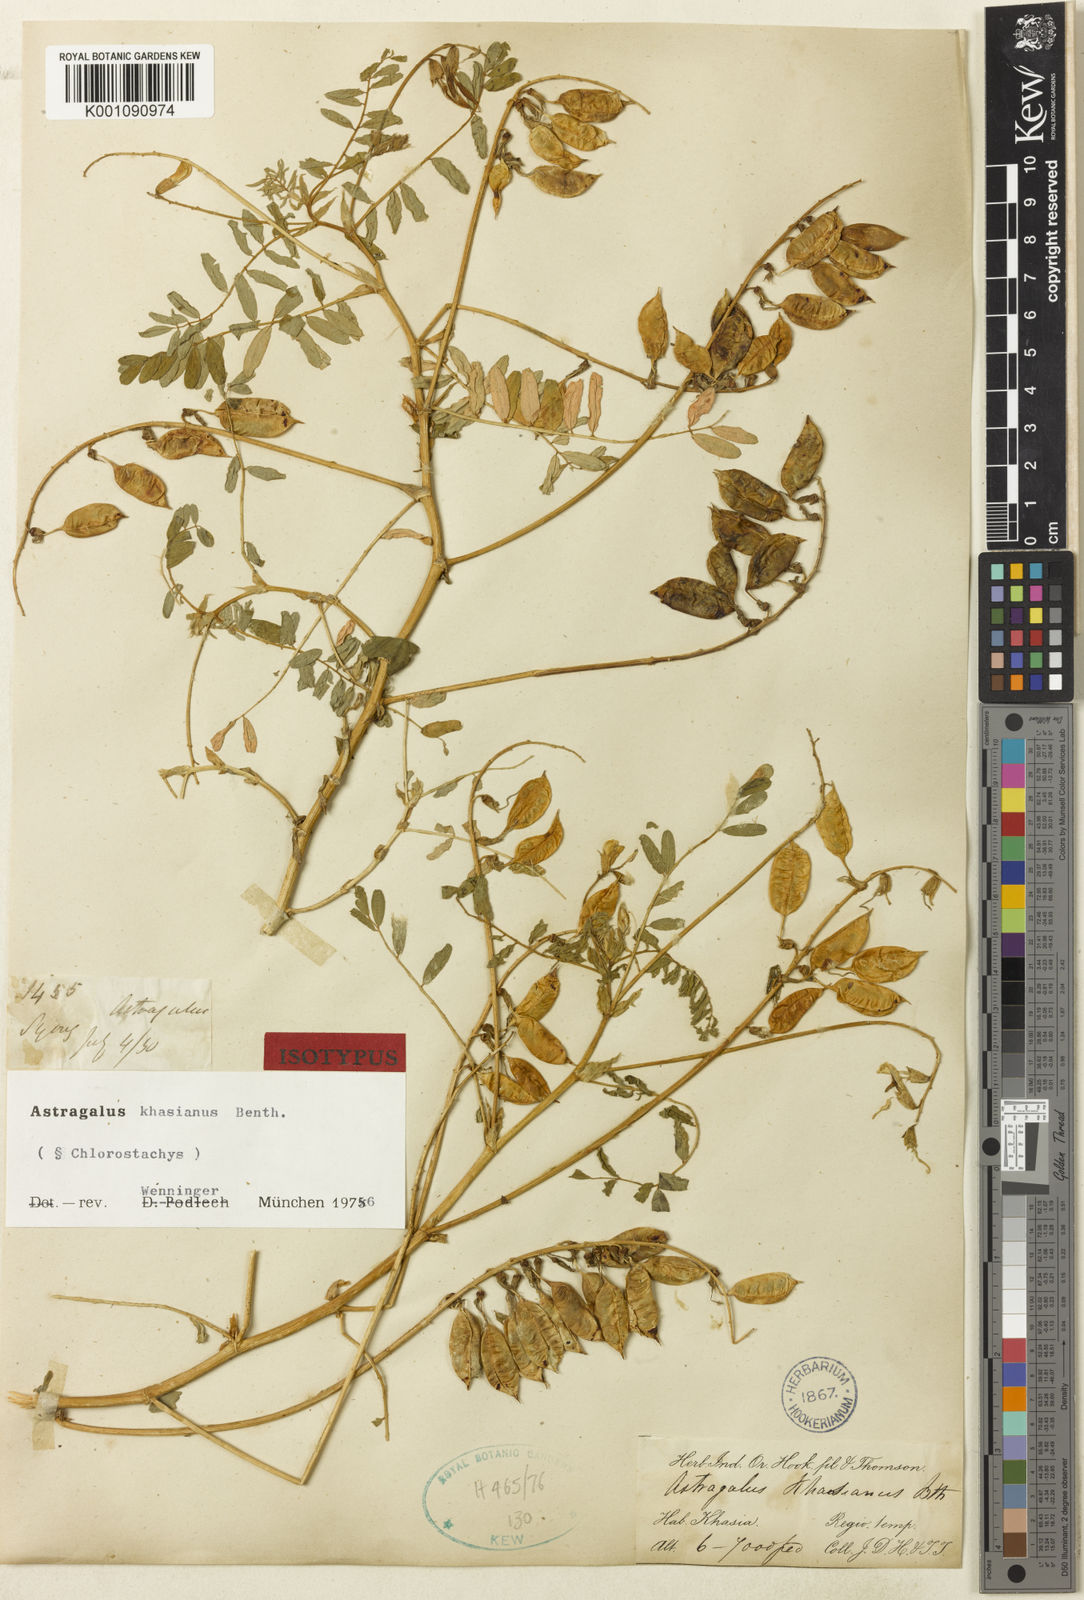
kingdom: Plantae
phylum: Tracheophyta
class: Magnoliopsida
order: Fabales
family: Fabaceae
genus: Astragalus
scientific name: Astragalus
